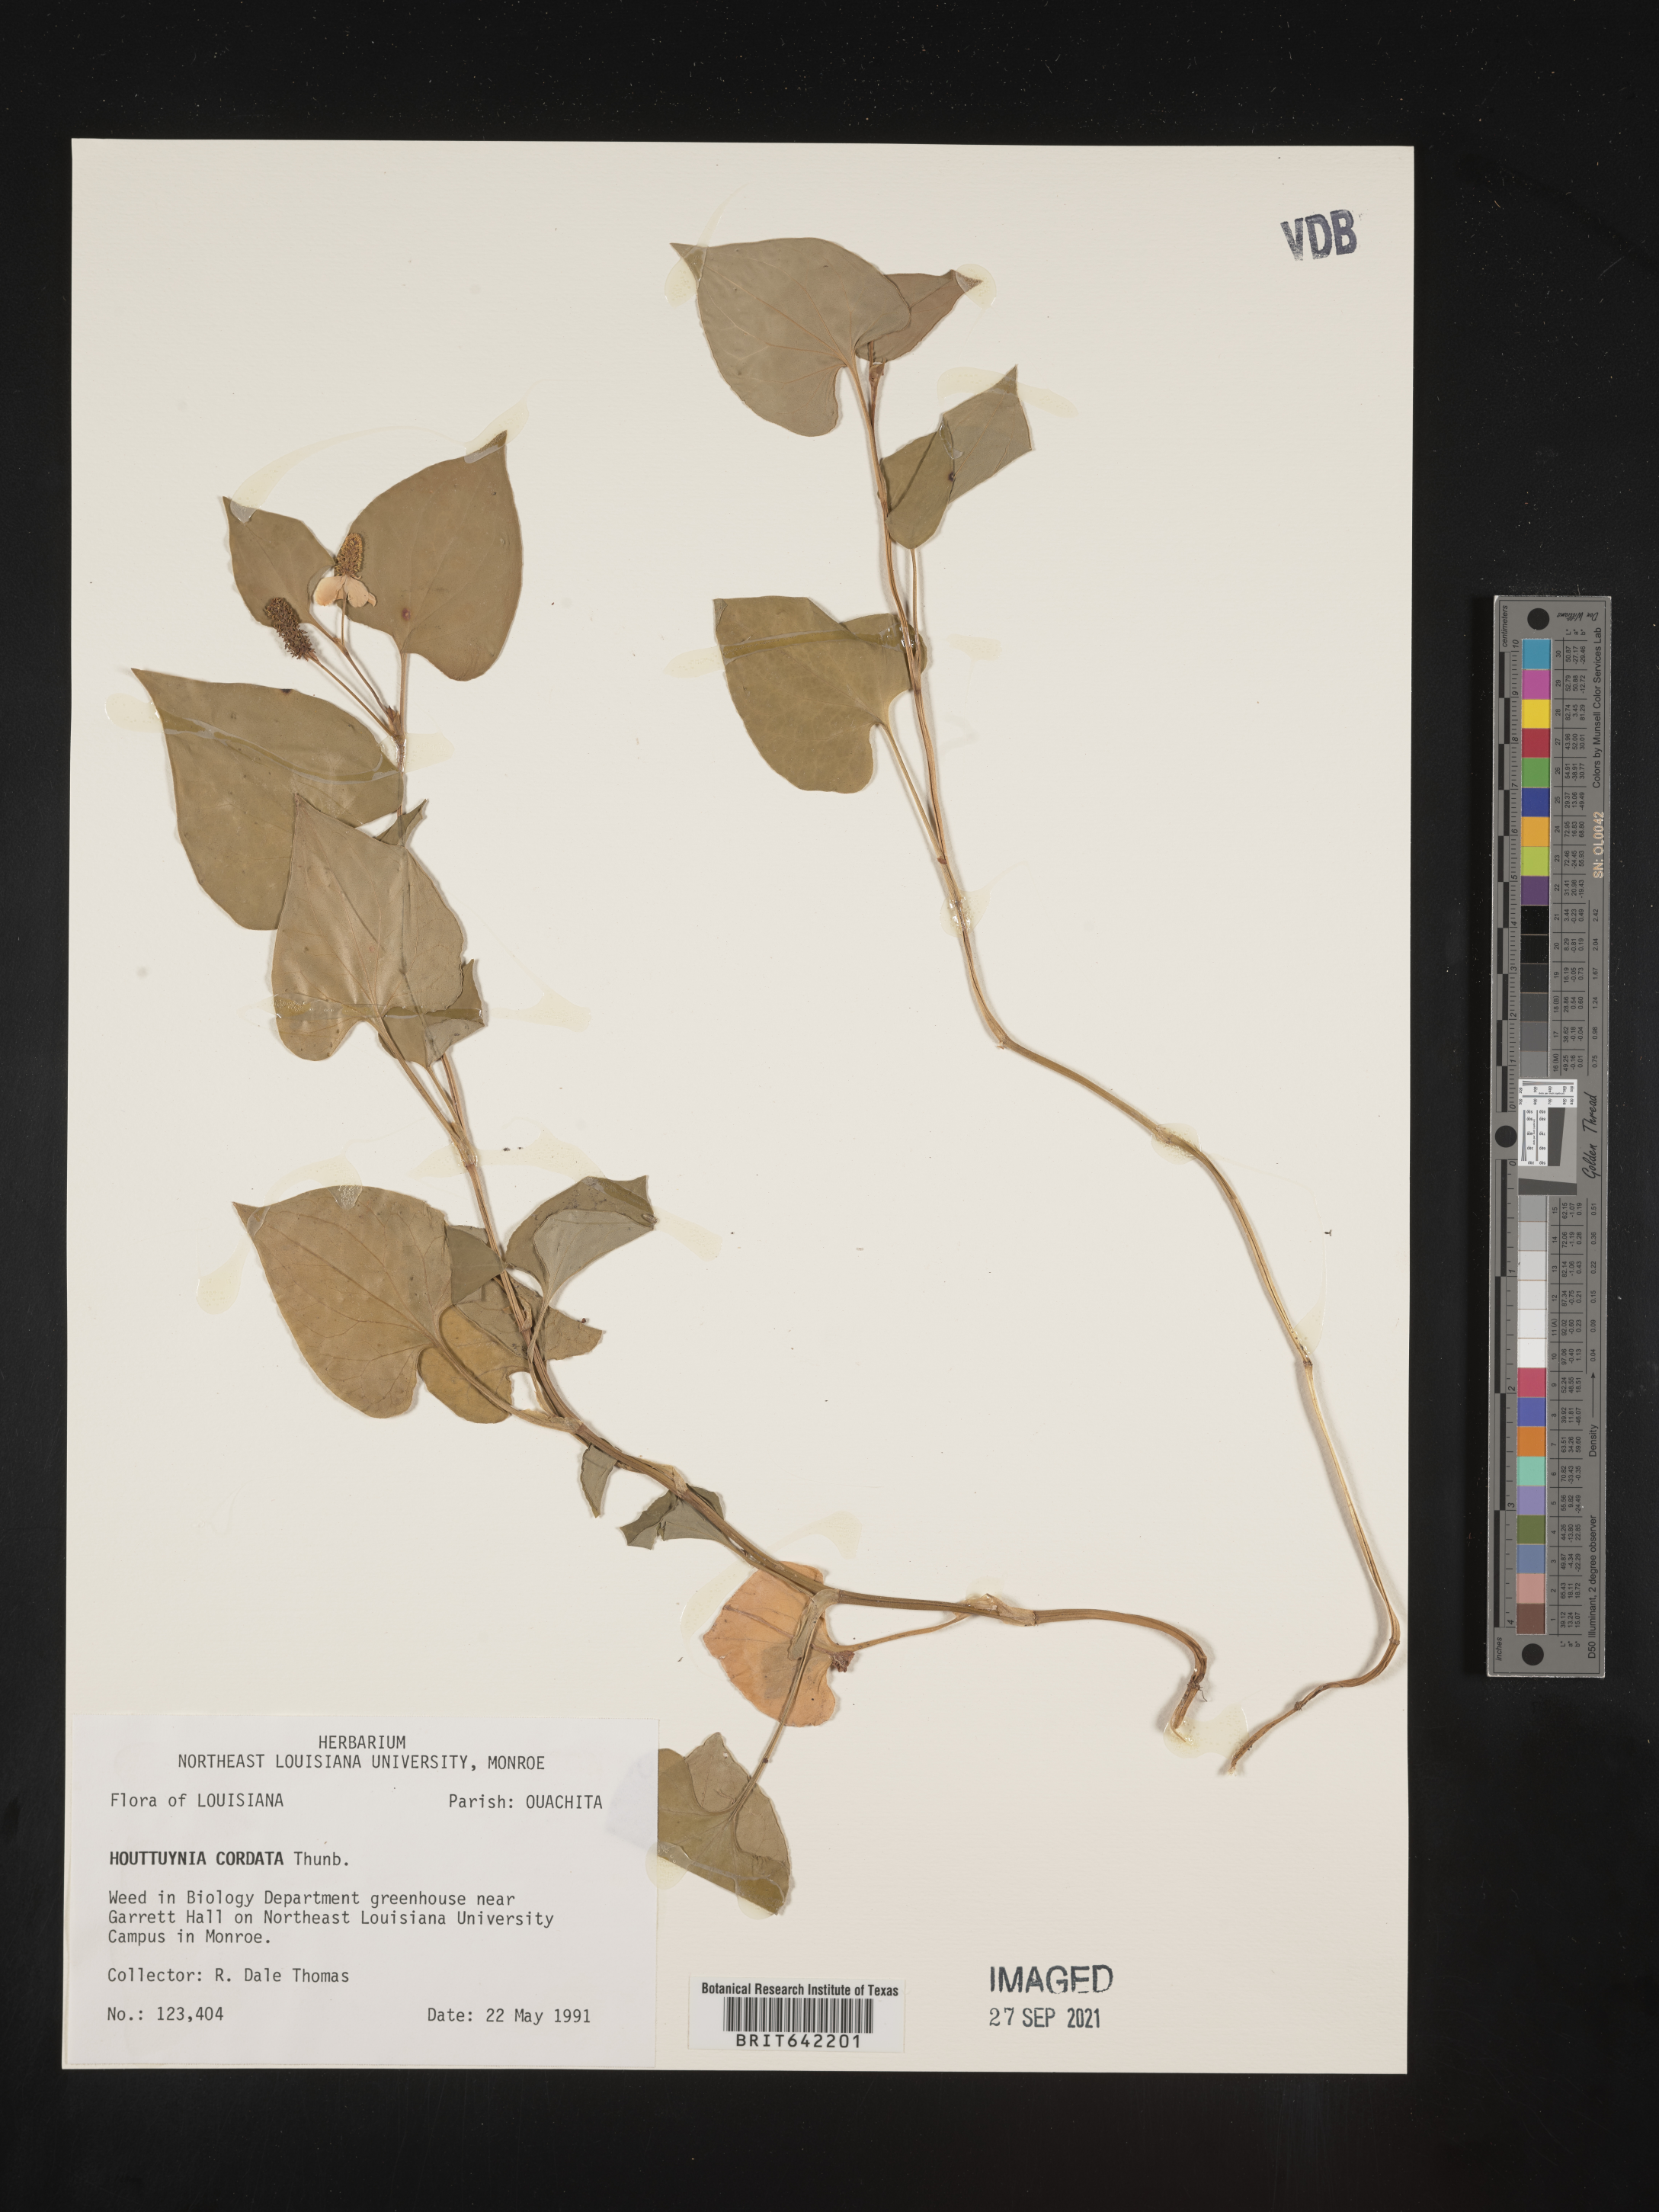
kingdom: Plantae
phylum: Tracheophyta
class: Magnoliopsida
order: Piperales
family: Saururaceae
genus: Houttuynia
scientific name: Houttuynia
